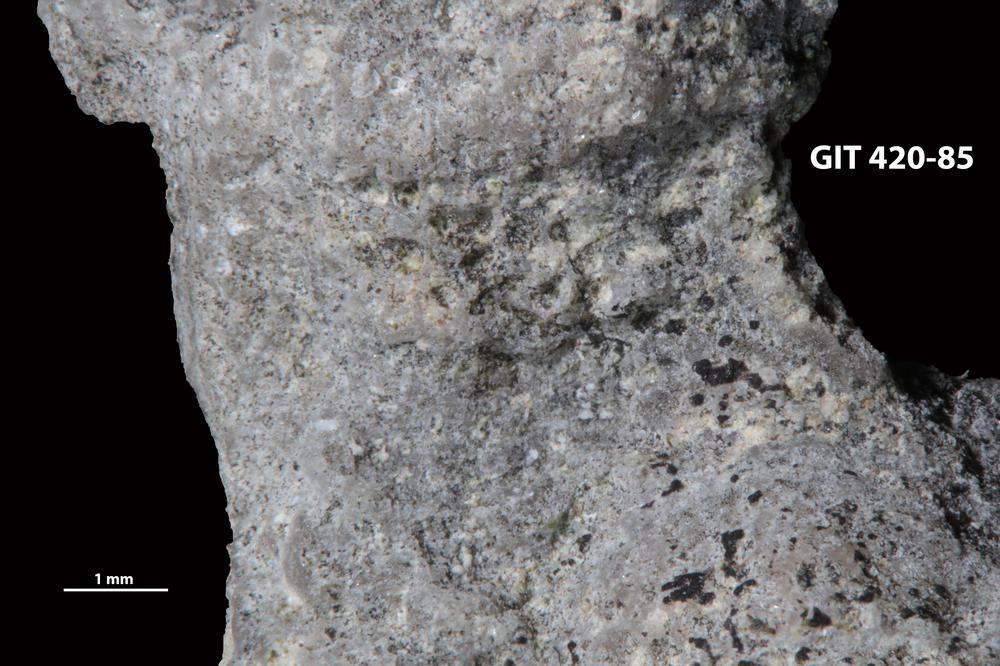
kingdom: Animalia
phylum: Bryozoa
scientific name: Bryozoa
